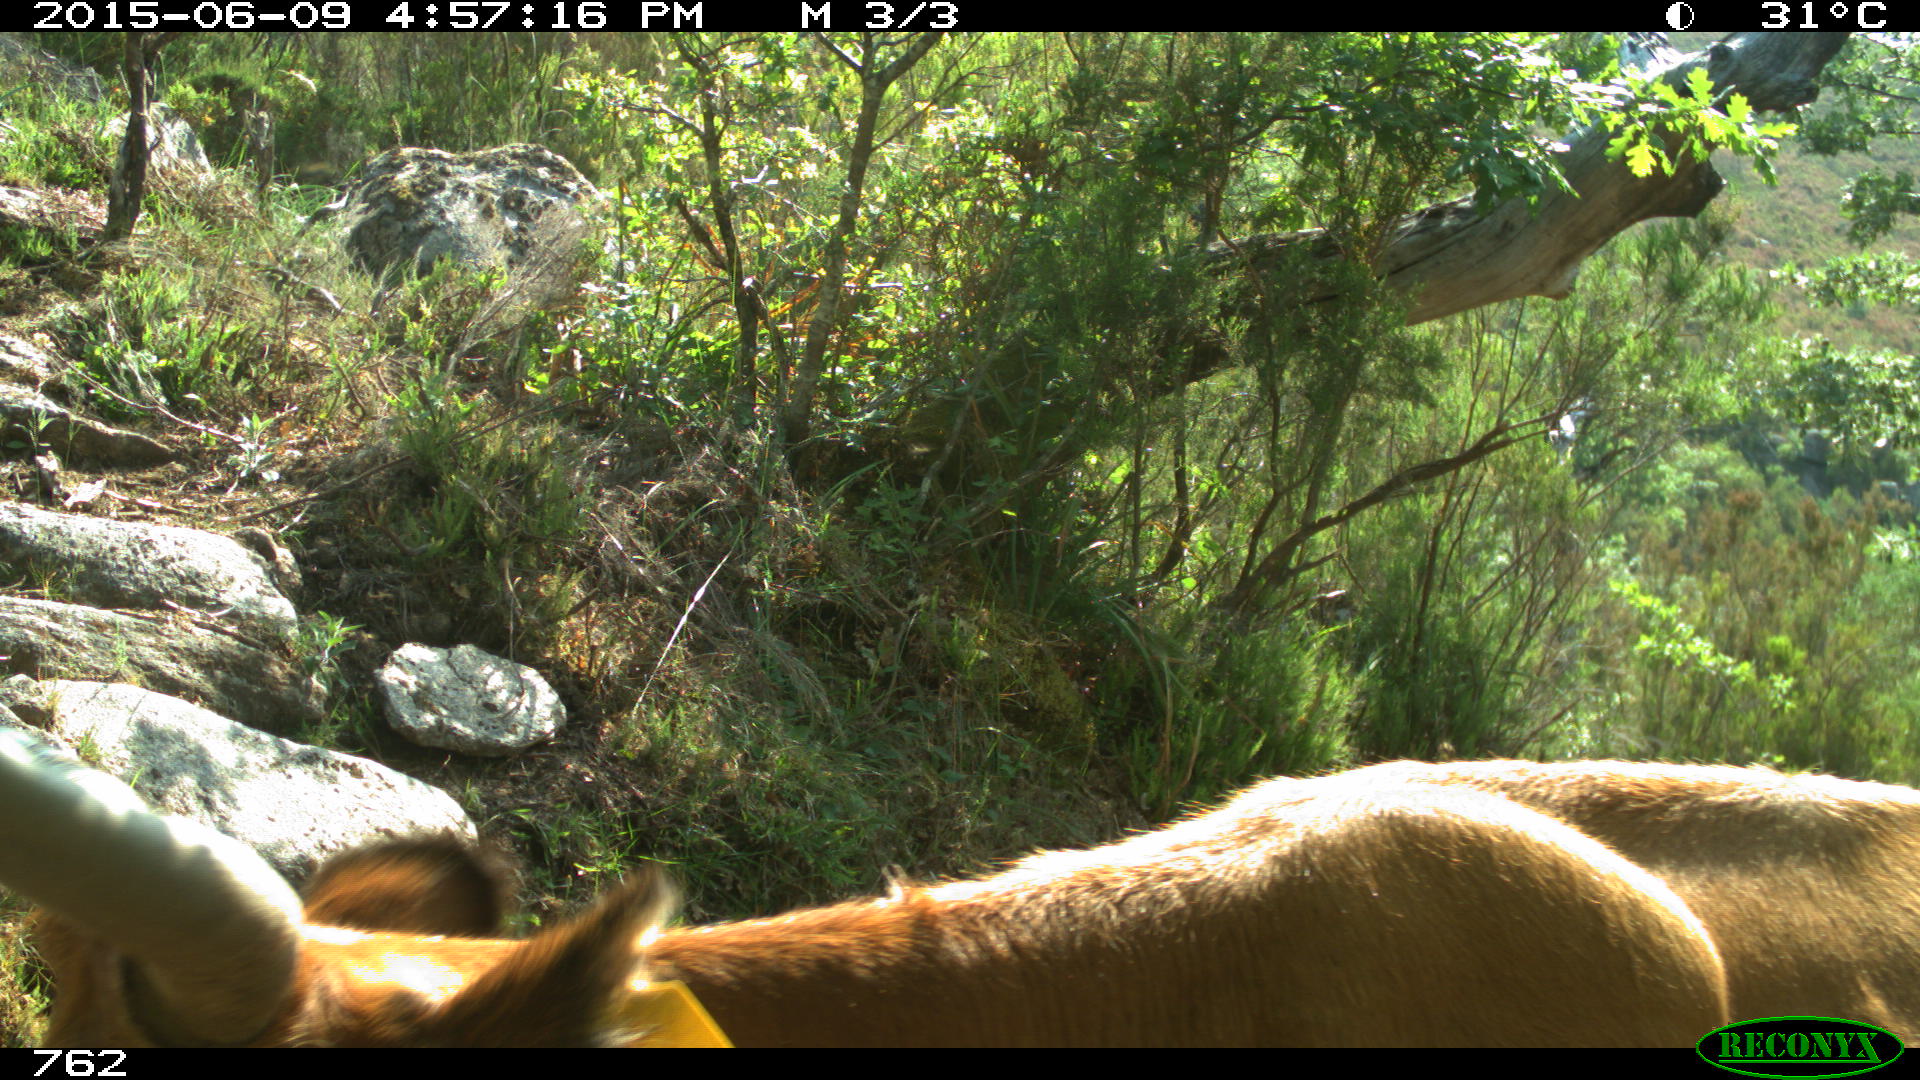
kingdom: Animalia
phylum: Chordata
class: Mammalia
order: Artiodactyla
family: Bovidae
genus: Bos
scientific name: Bos taurus
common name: Domesticated cattle
